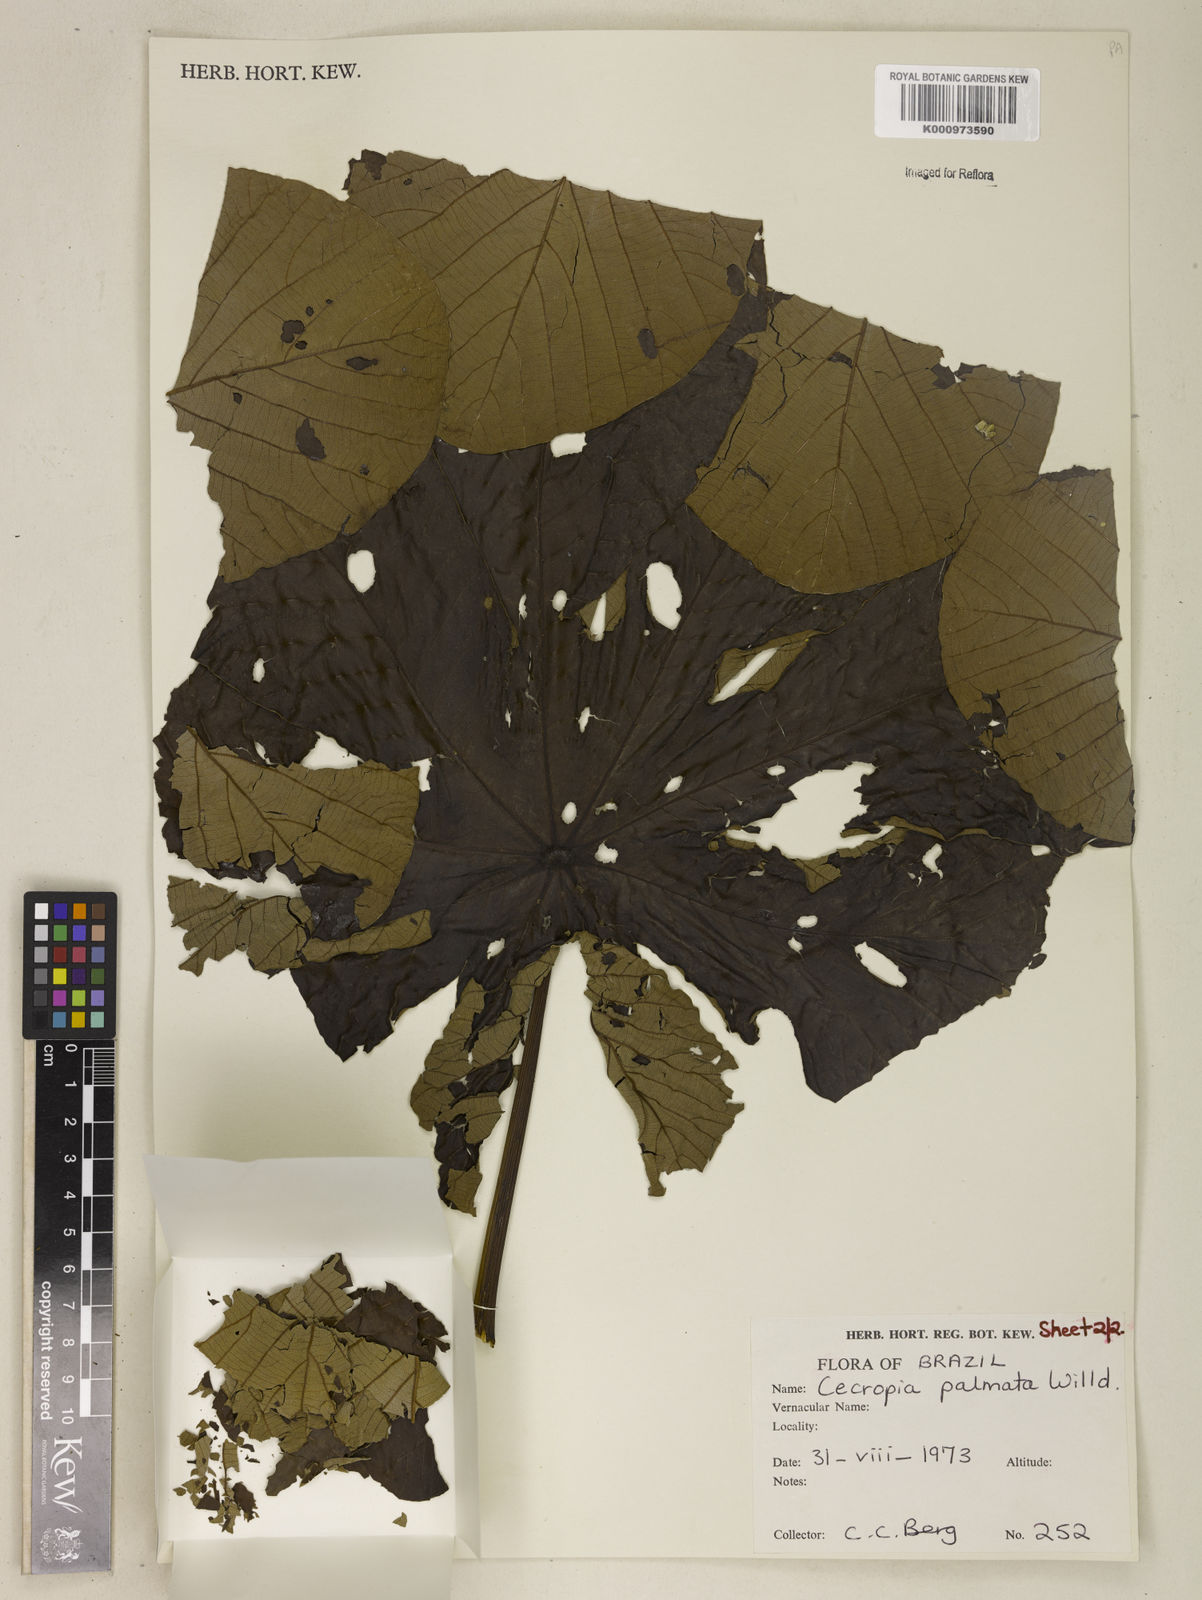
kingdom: Plantae
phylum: Tracheophyta
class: Magnoliopsida
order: Rosales
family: Urticaceae
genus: Cecropia
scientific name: Cecropia palmata
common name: Trumpet tree
